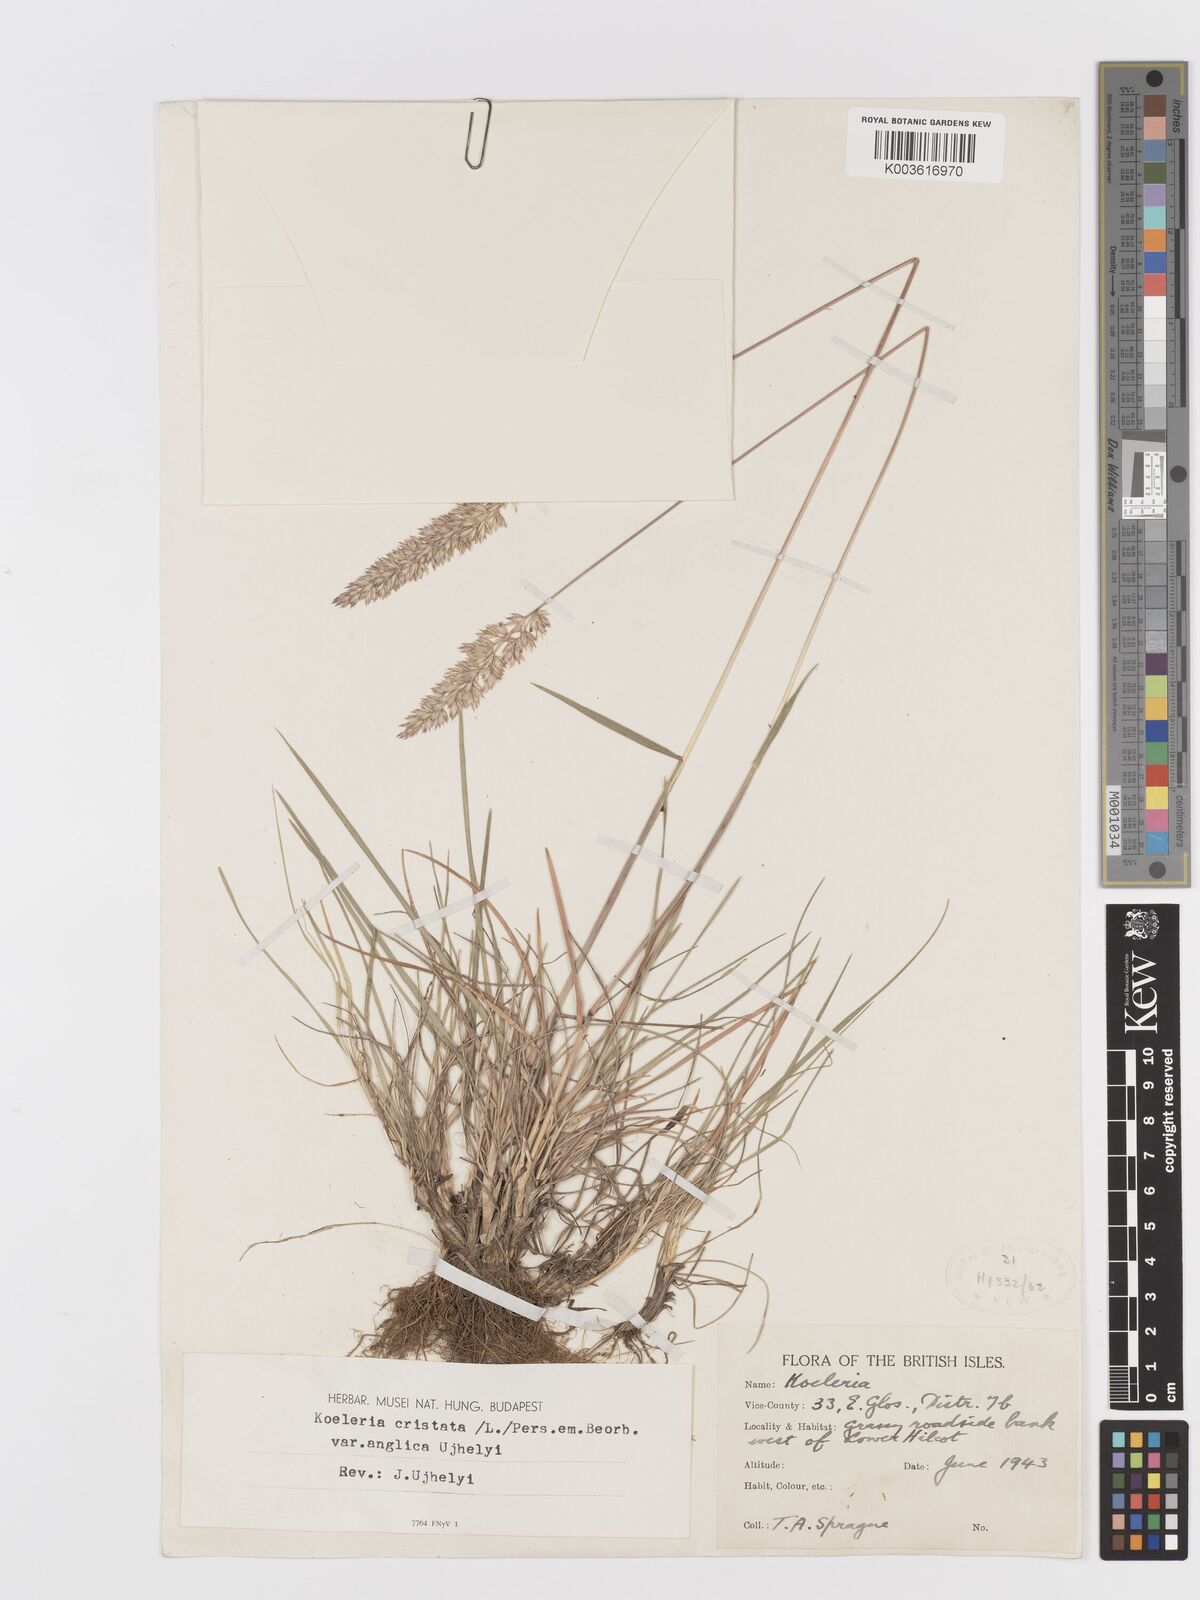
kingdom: Plantae
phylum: Tracheophyta
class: Liliopsida
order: Poales
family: Poaceae
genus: Koeleria
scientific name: Koeleria macrantha
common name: Crested hair-grass
